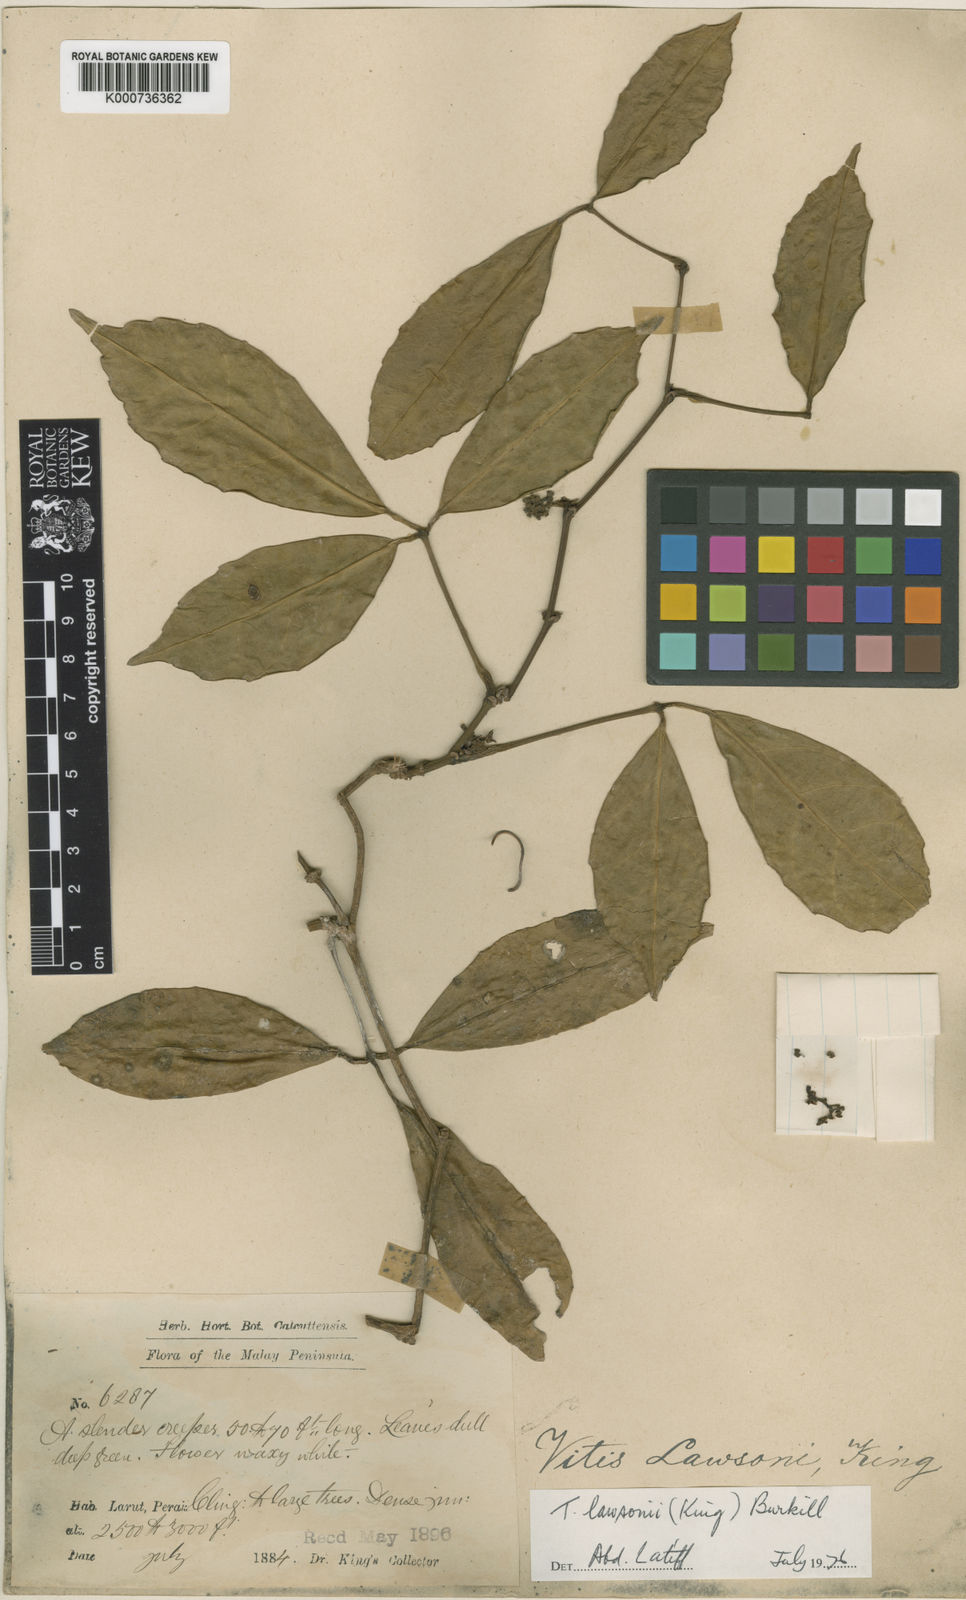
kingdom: Plantae
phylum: Tracheophyta
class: Magnoliopsida
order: Vitales
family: Vitaceae
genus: Tetrastigma
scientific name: Tetrastigma
